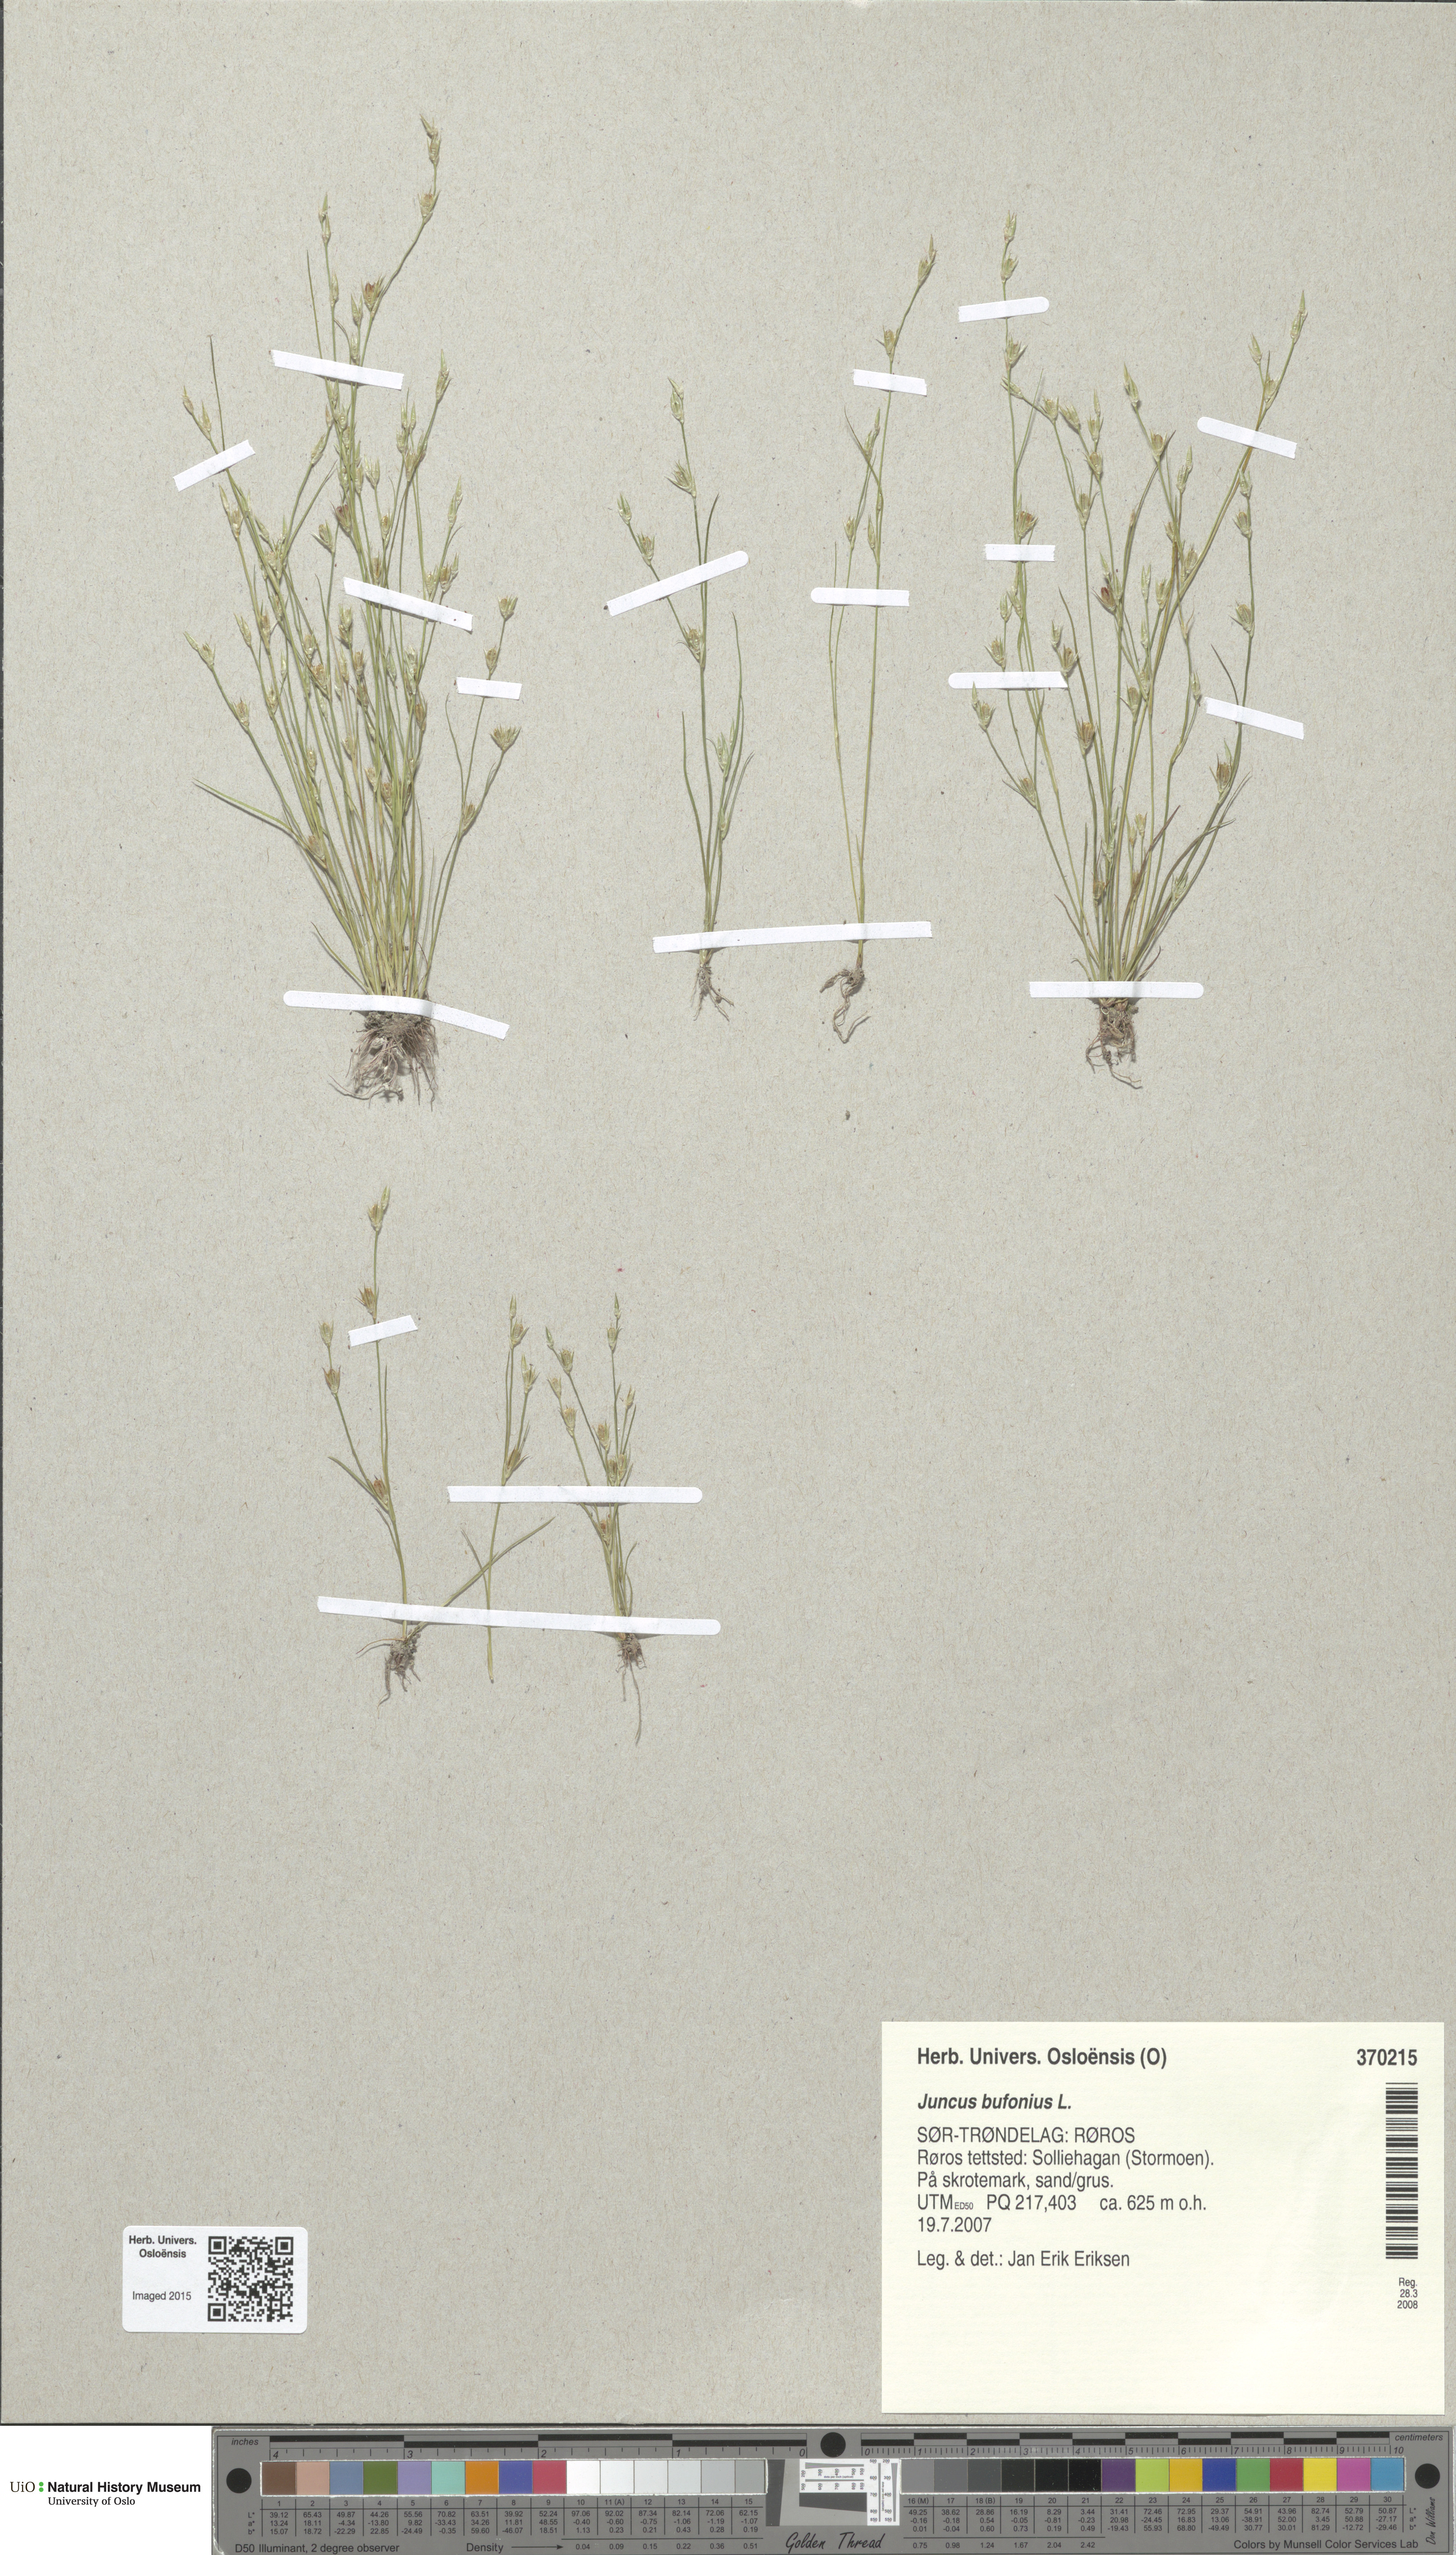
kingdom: Plantae
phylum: Tracheophyta
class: Liliopsida
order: Poales
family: Juncaceae
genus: Juncus
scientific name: Juncus bufonius
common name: Toad rush
